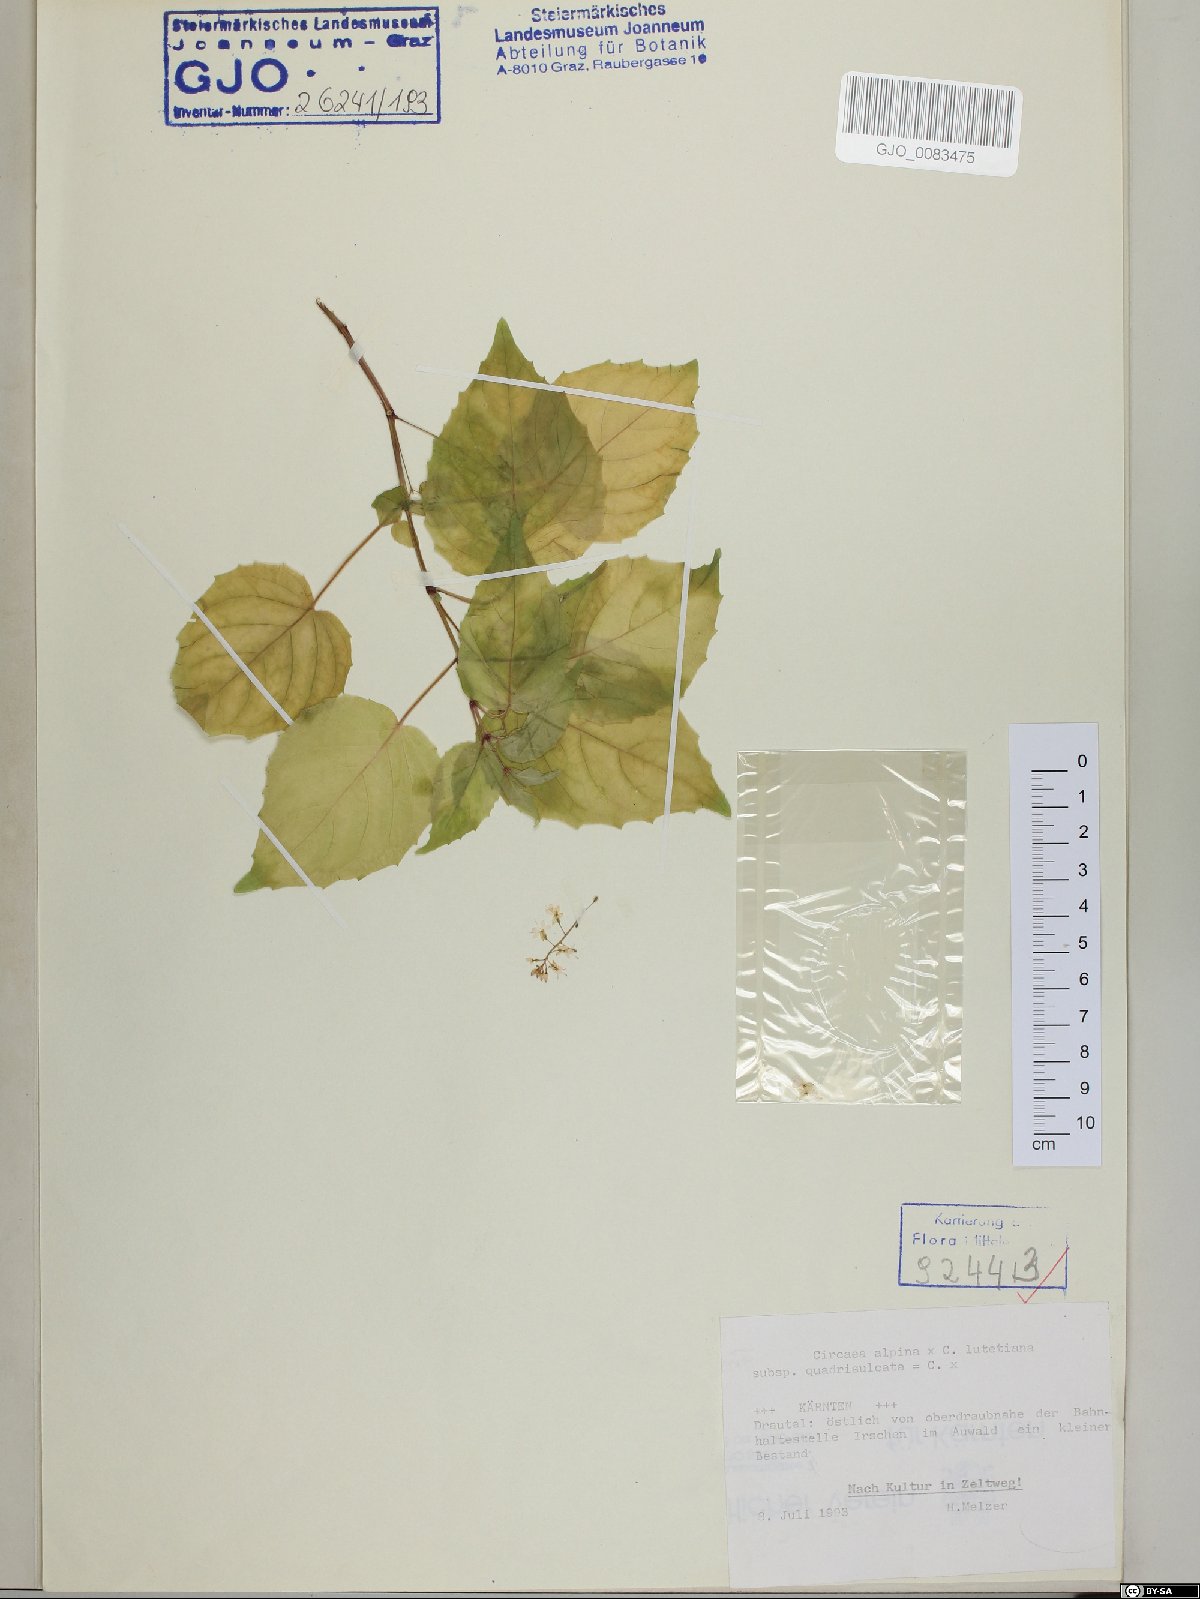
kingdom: Plantae
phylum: Tracheophyta
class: Magnoliopsida
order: Myrtales
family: Onagraceae
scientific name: Onagraceae
